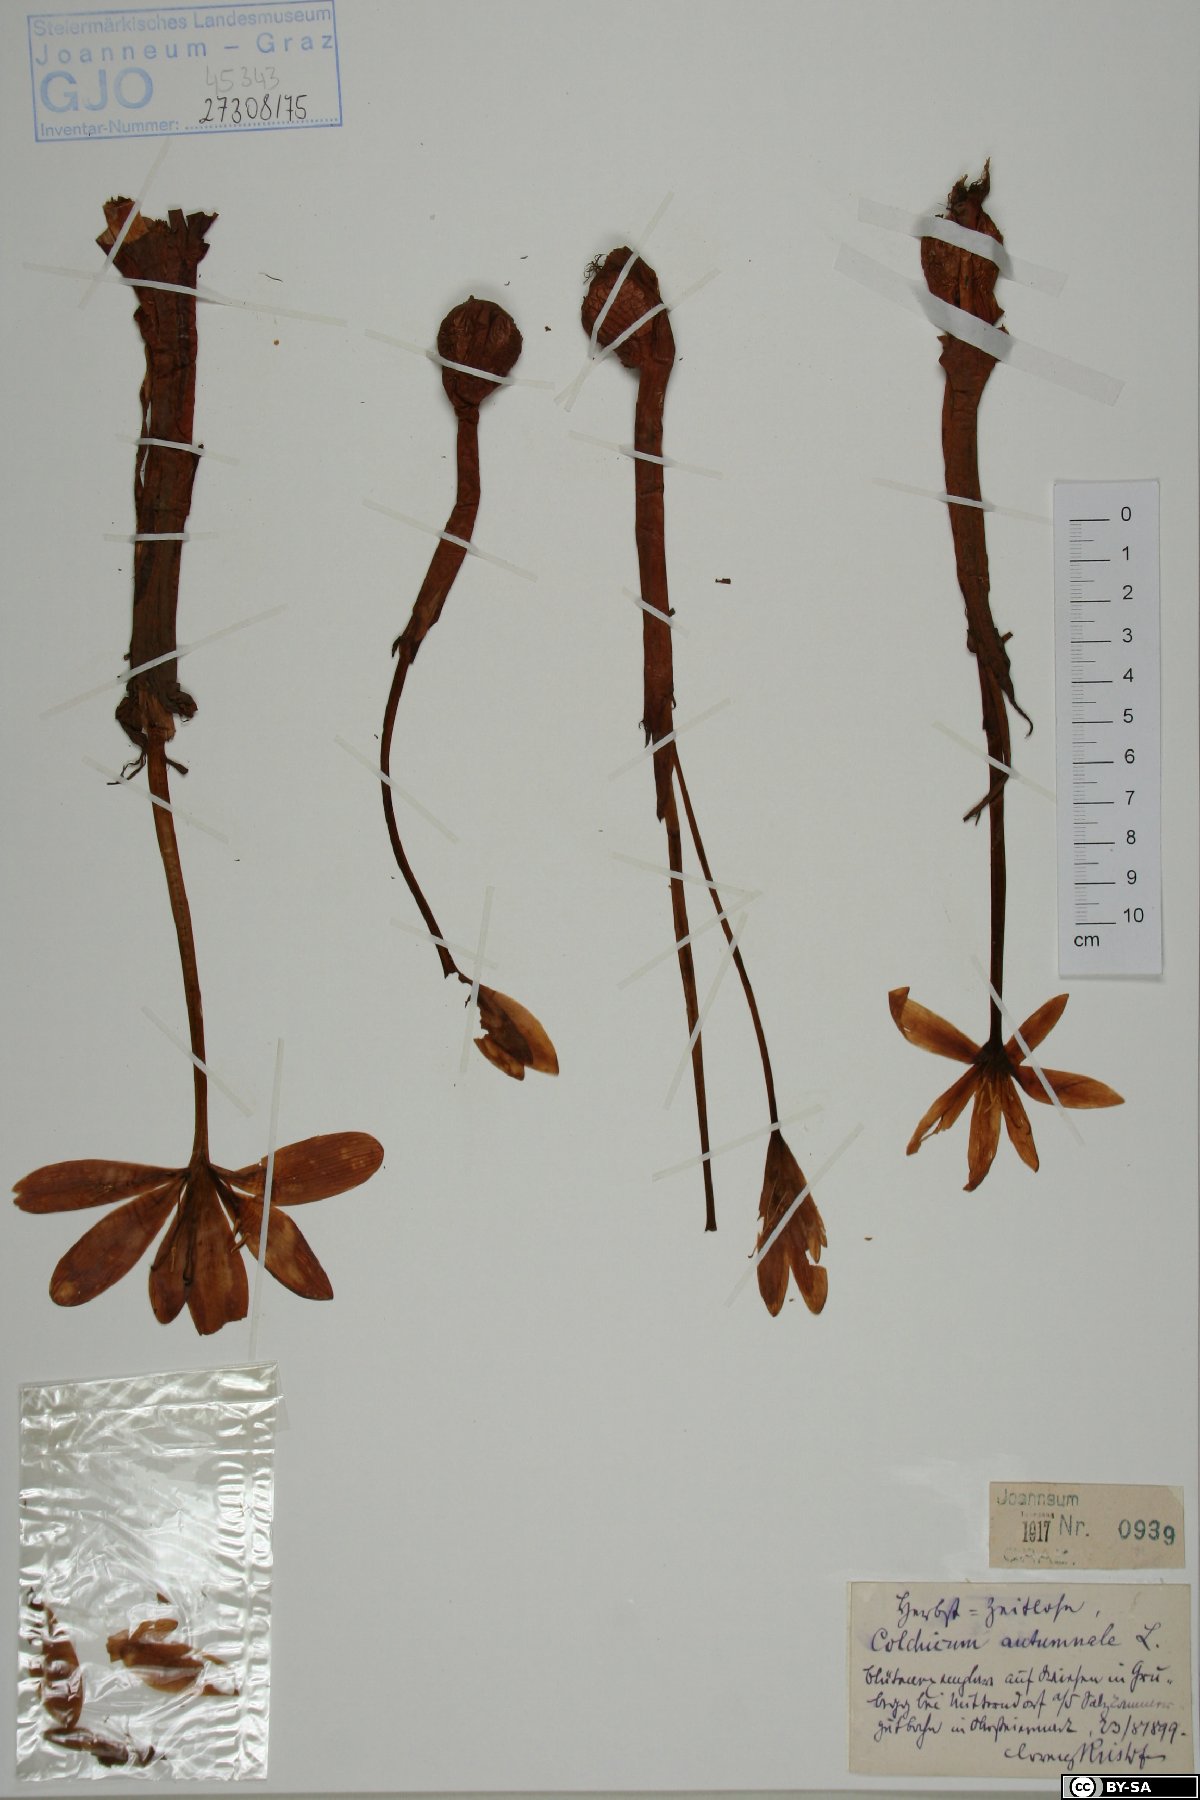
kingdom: Plantae
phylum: Tracheophyta
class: Liliopsida
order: Liliales
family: Colchicaceae
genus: Colchicum
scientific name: Colchicum autumnale
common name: Autumn crocus
